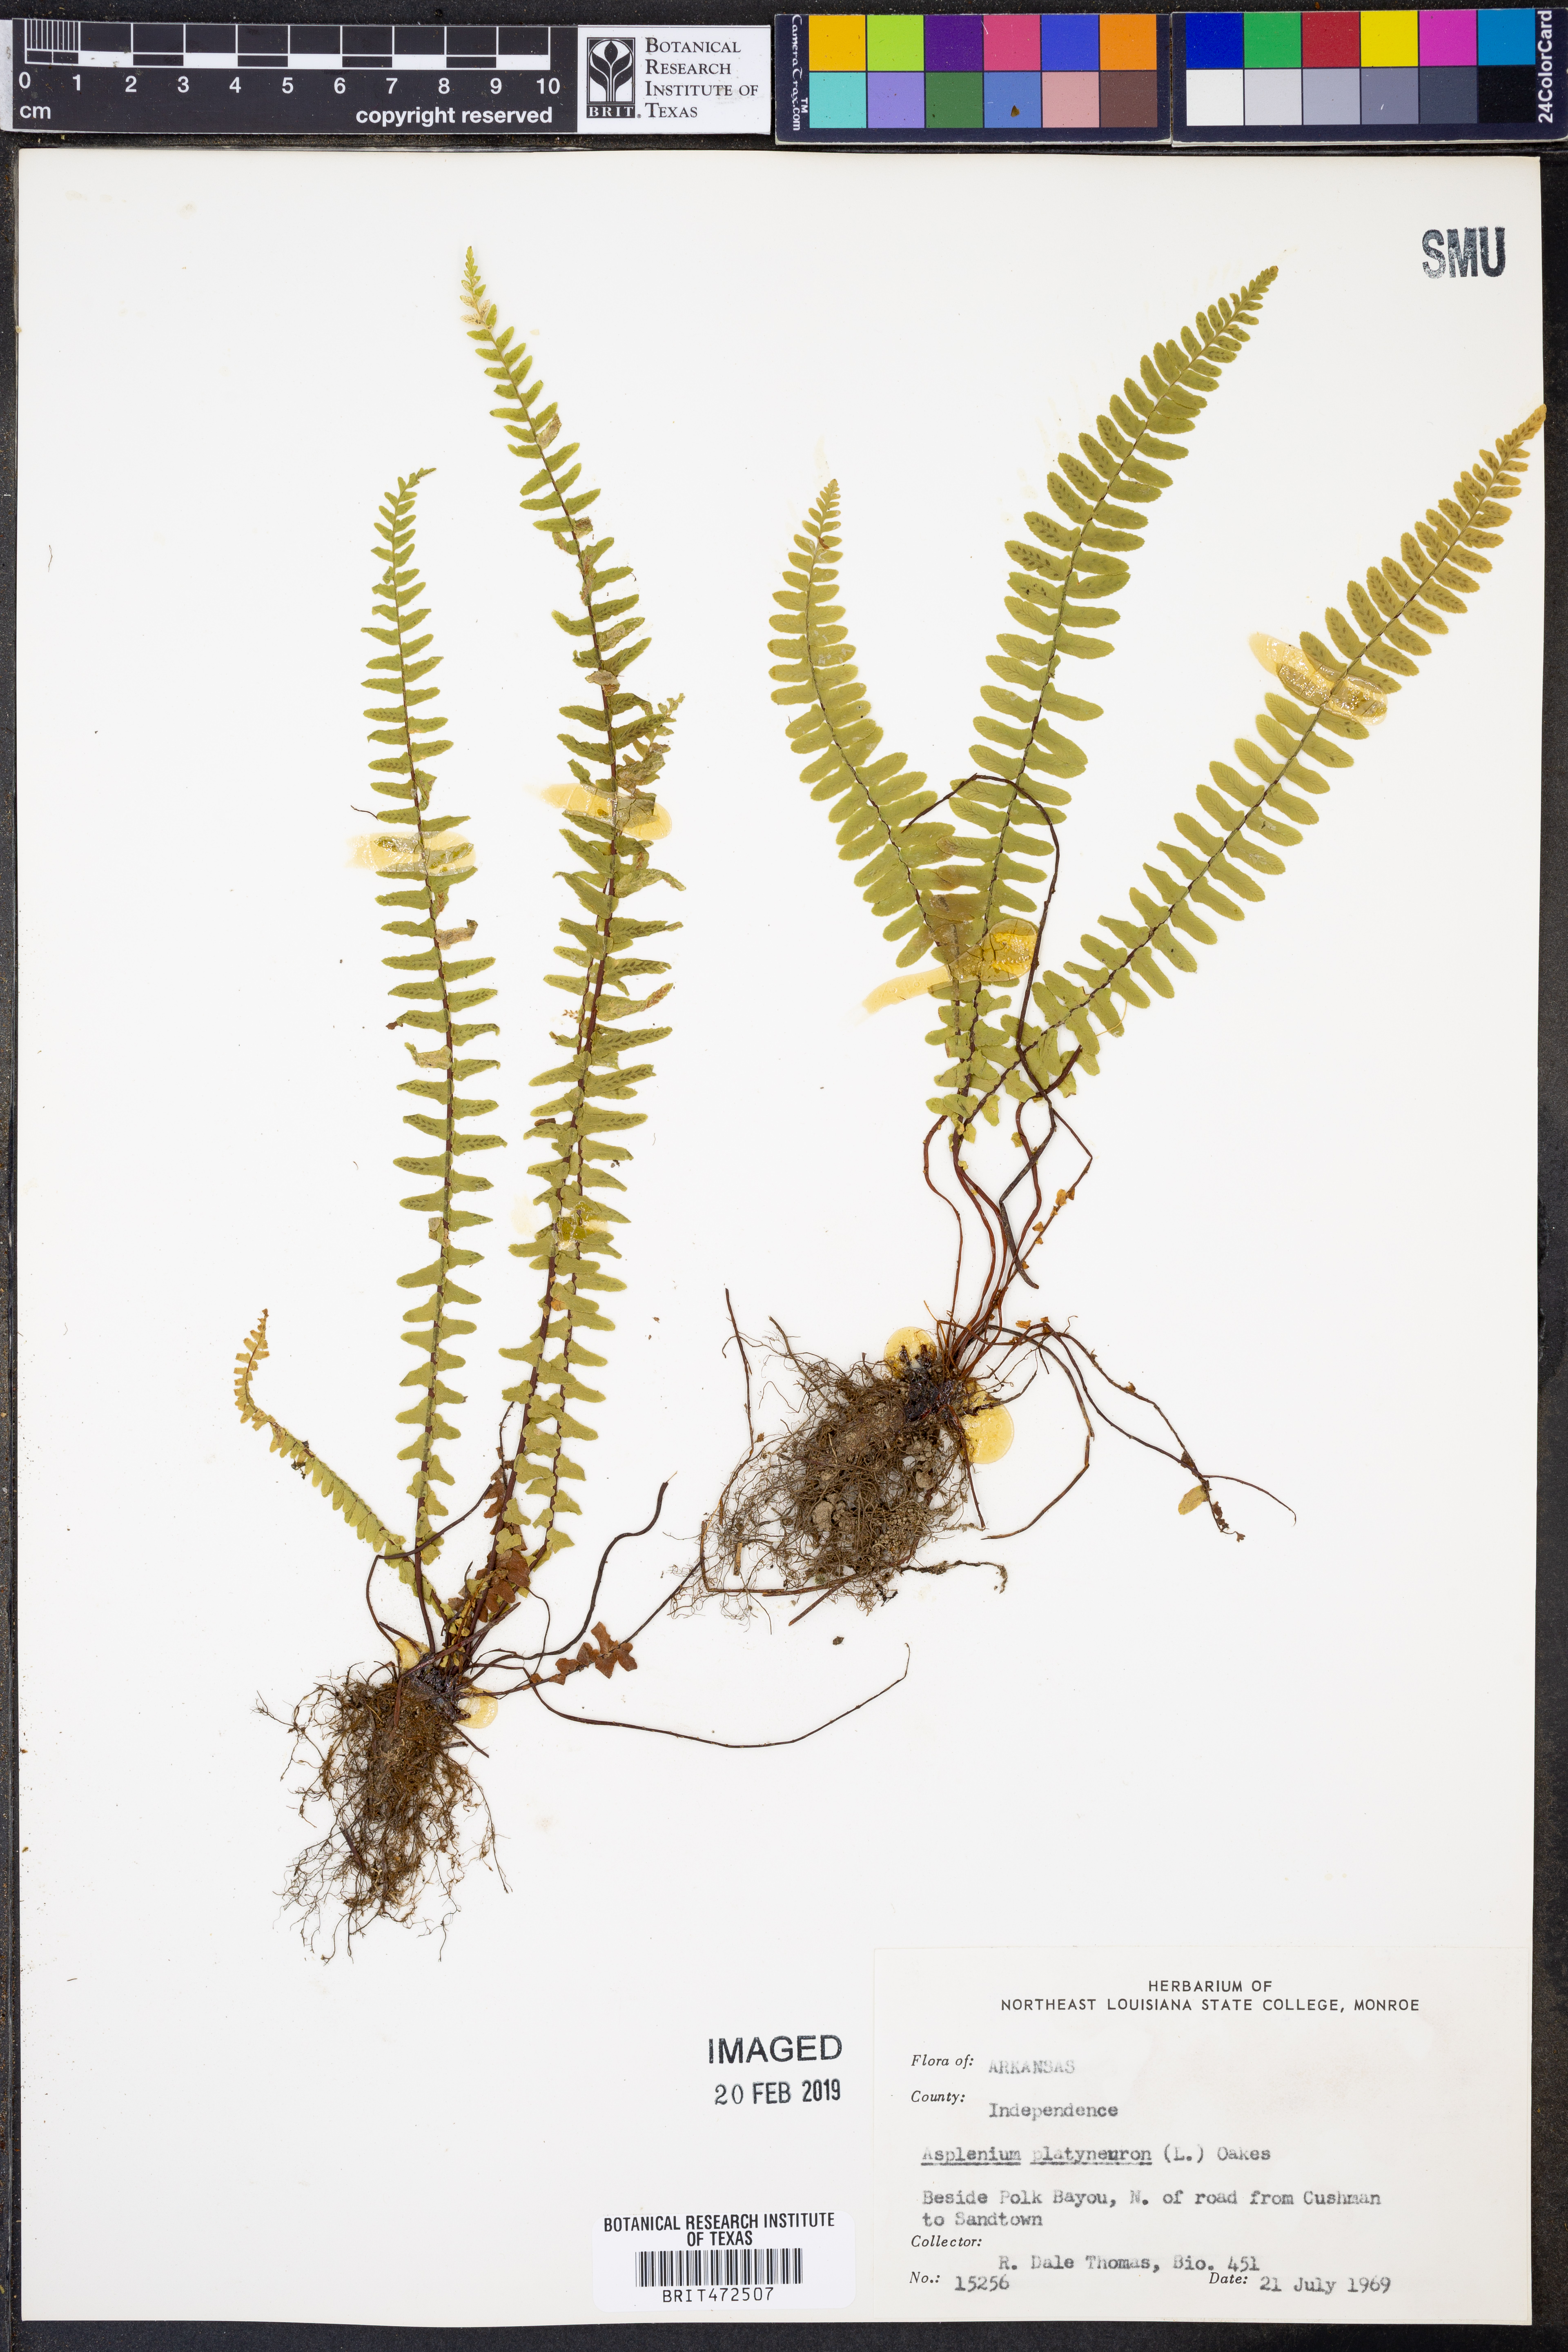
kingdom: Plantae
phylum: Tracheophyta
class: Polypodiopsida
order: Polypodiales
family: Aspleniaceae
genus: Asplenium
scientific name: Asplenium platyneuron
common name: Ebony spleenwort
